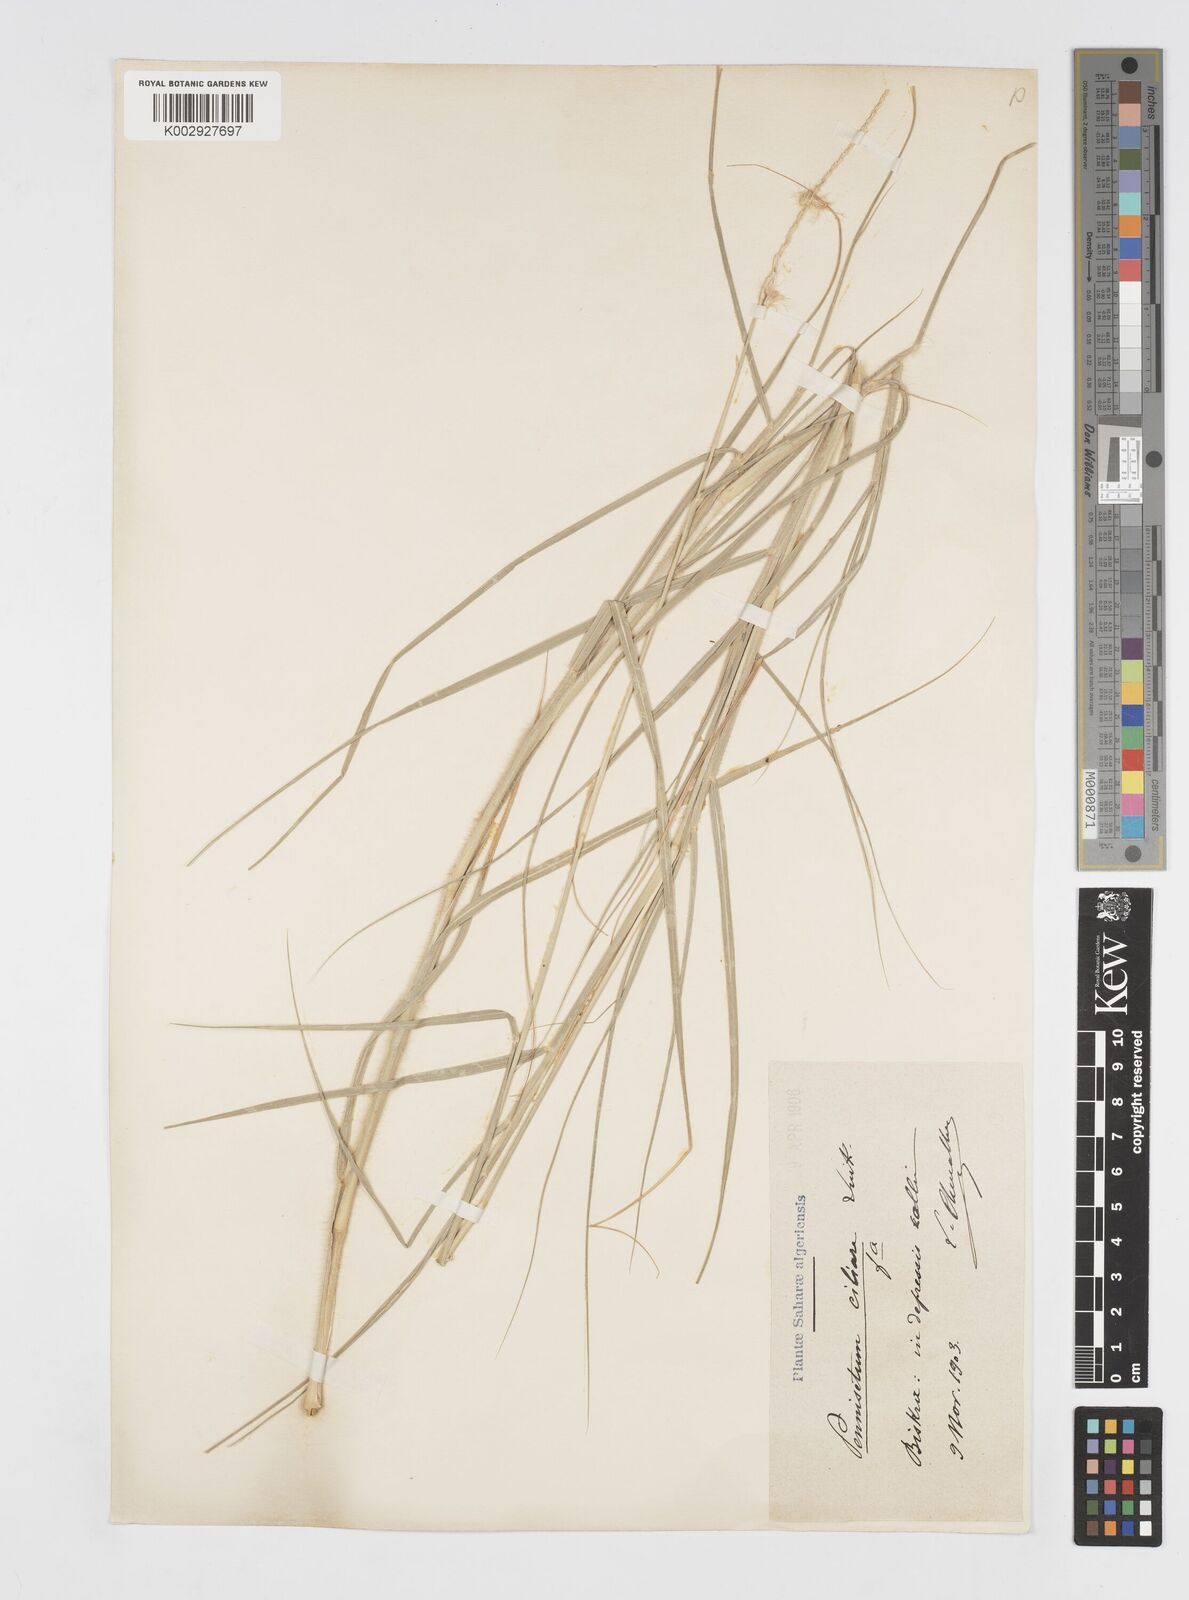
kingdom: Plantae
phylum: Tracheophyta
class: Liliopsida
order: Poales
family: Poaceae
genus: Cenchrus
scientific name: Cenchrus ciliaris
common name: Buffelgrass
